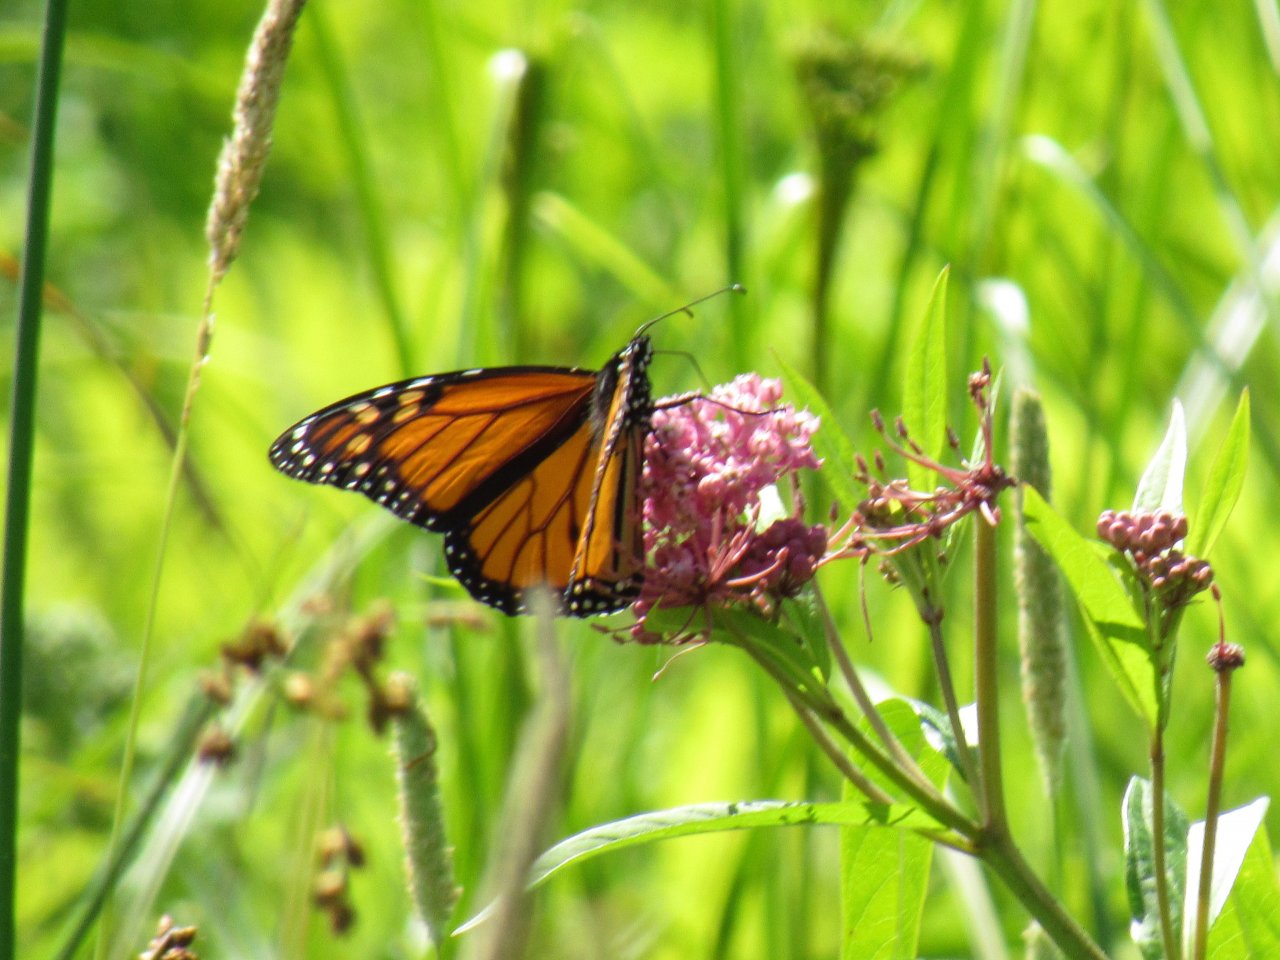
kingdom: Animalia
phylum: Arthropoda
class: Insecta
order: Lepidoptera
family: Nymphalidae
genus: Danaus
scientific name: Danaus plexippus
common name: Monarch
